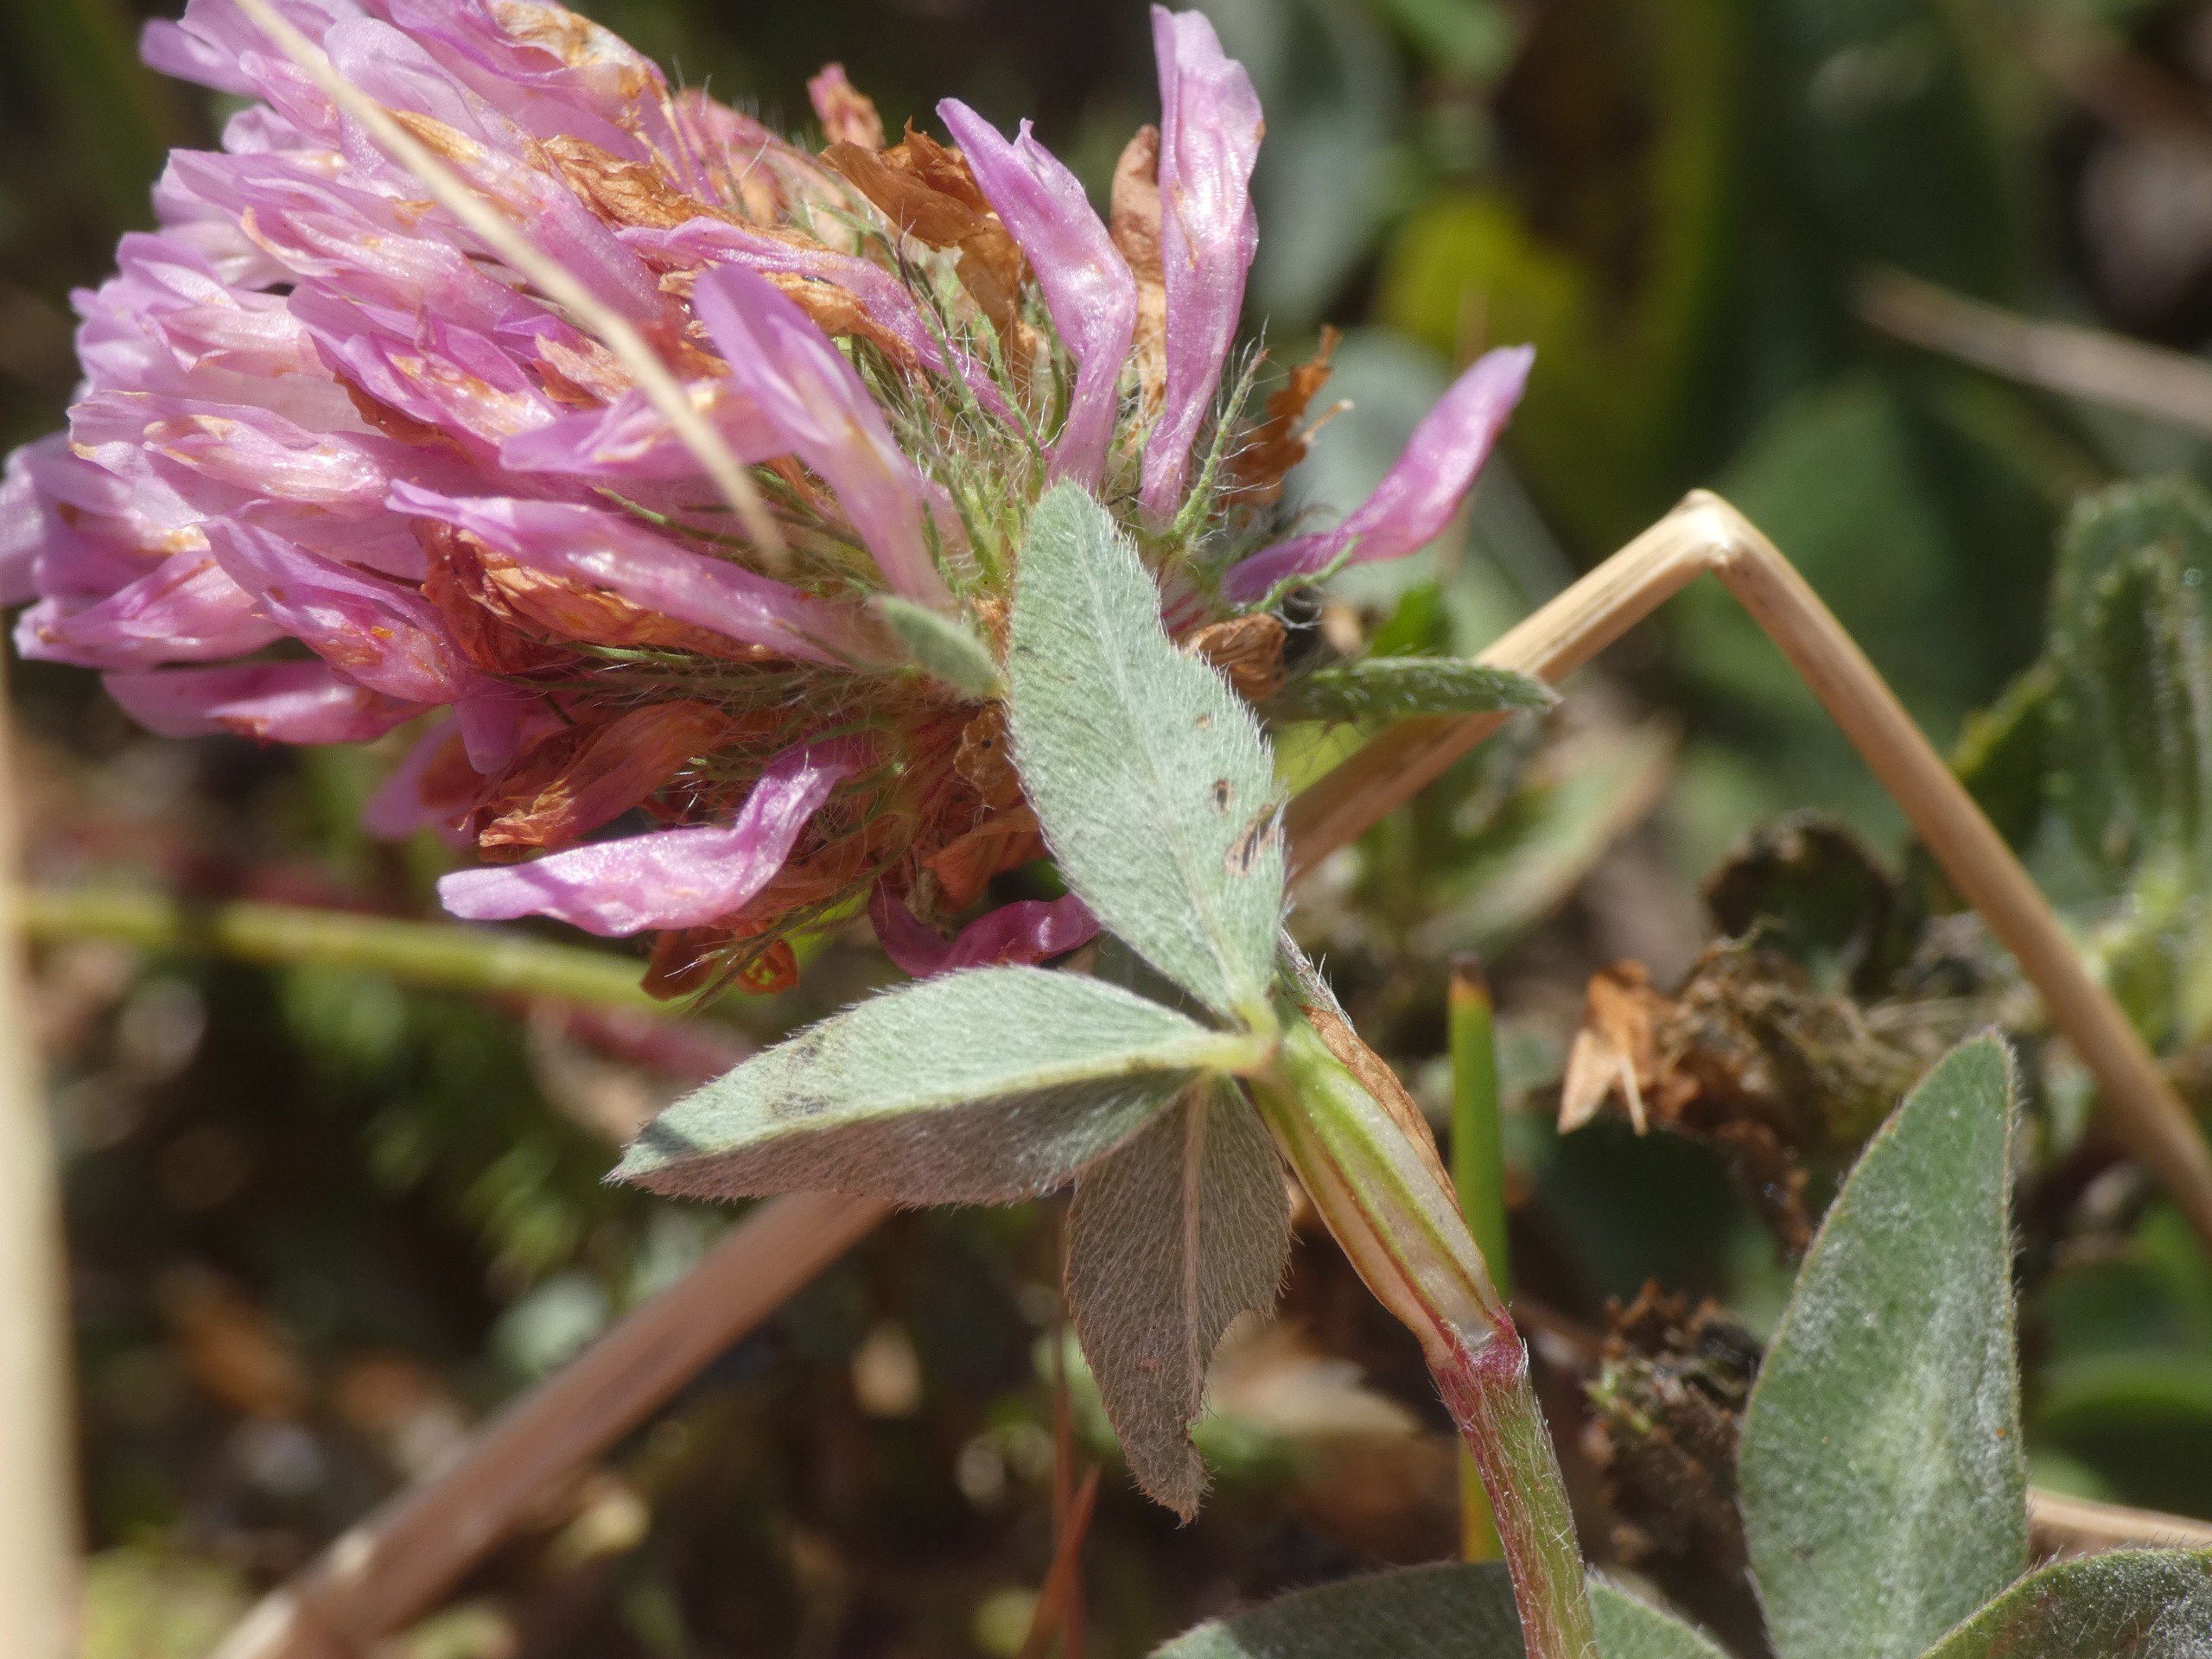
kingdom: Plantae
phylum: Tracheophyta
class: Magnoliopsida
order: Fabales
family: Fabaceae
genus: Trifolium
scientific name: Trifolium pratense
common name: Rød-kløver
